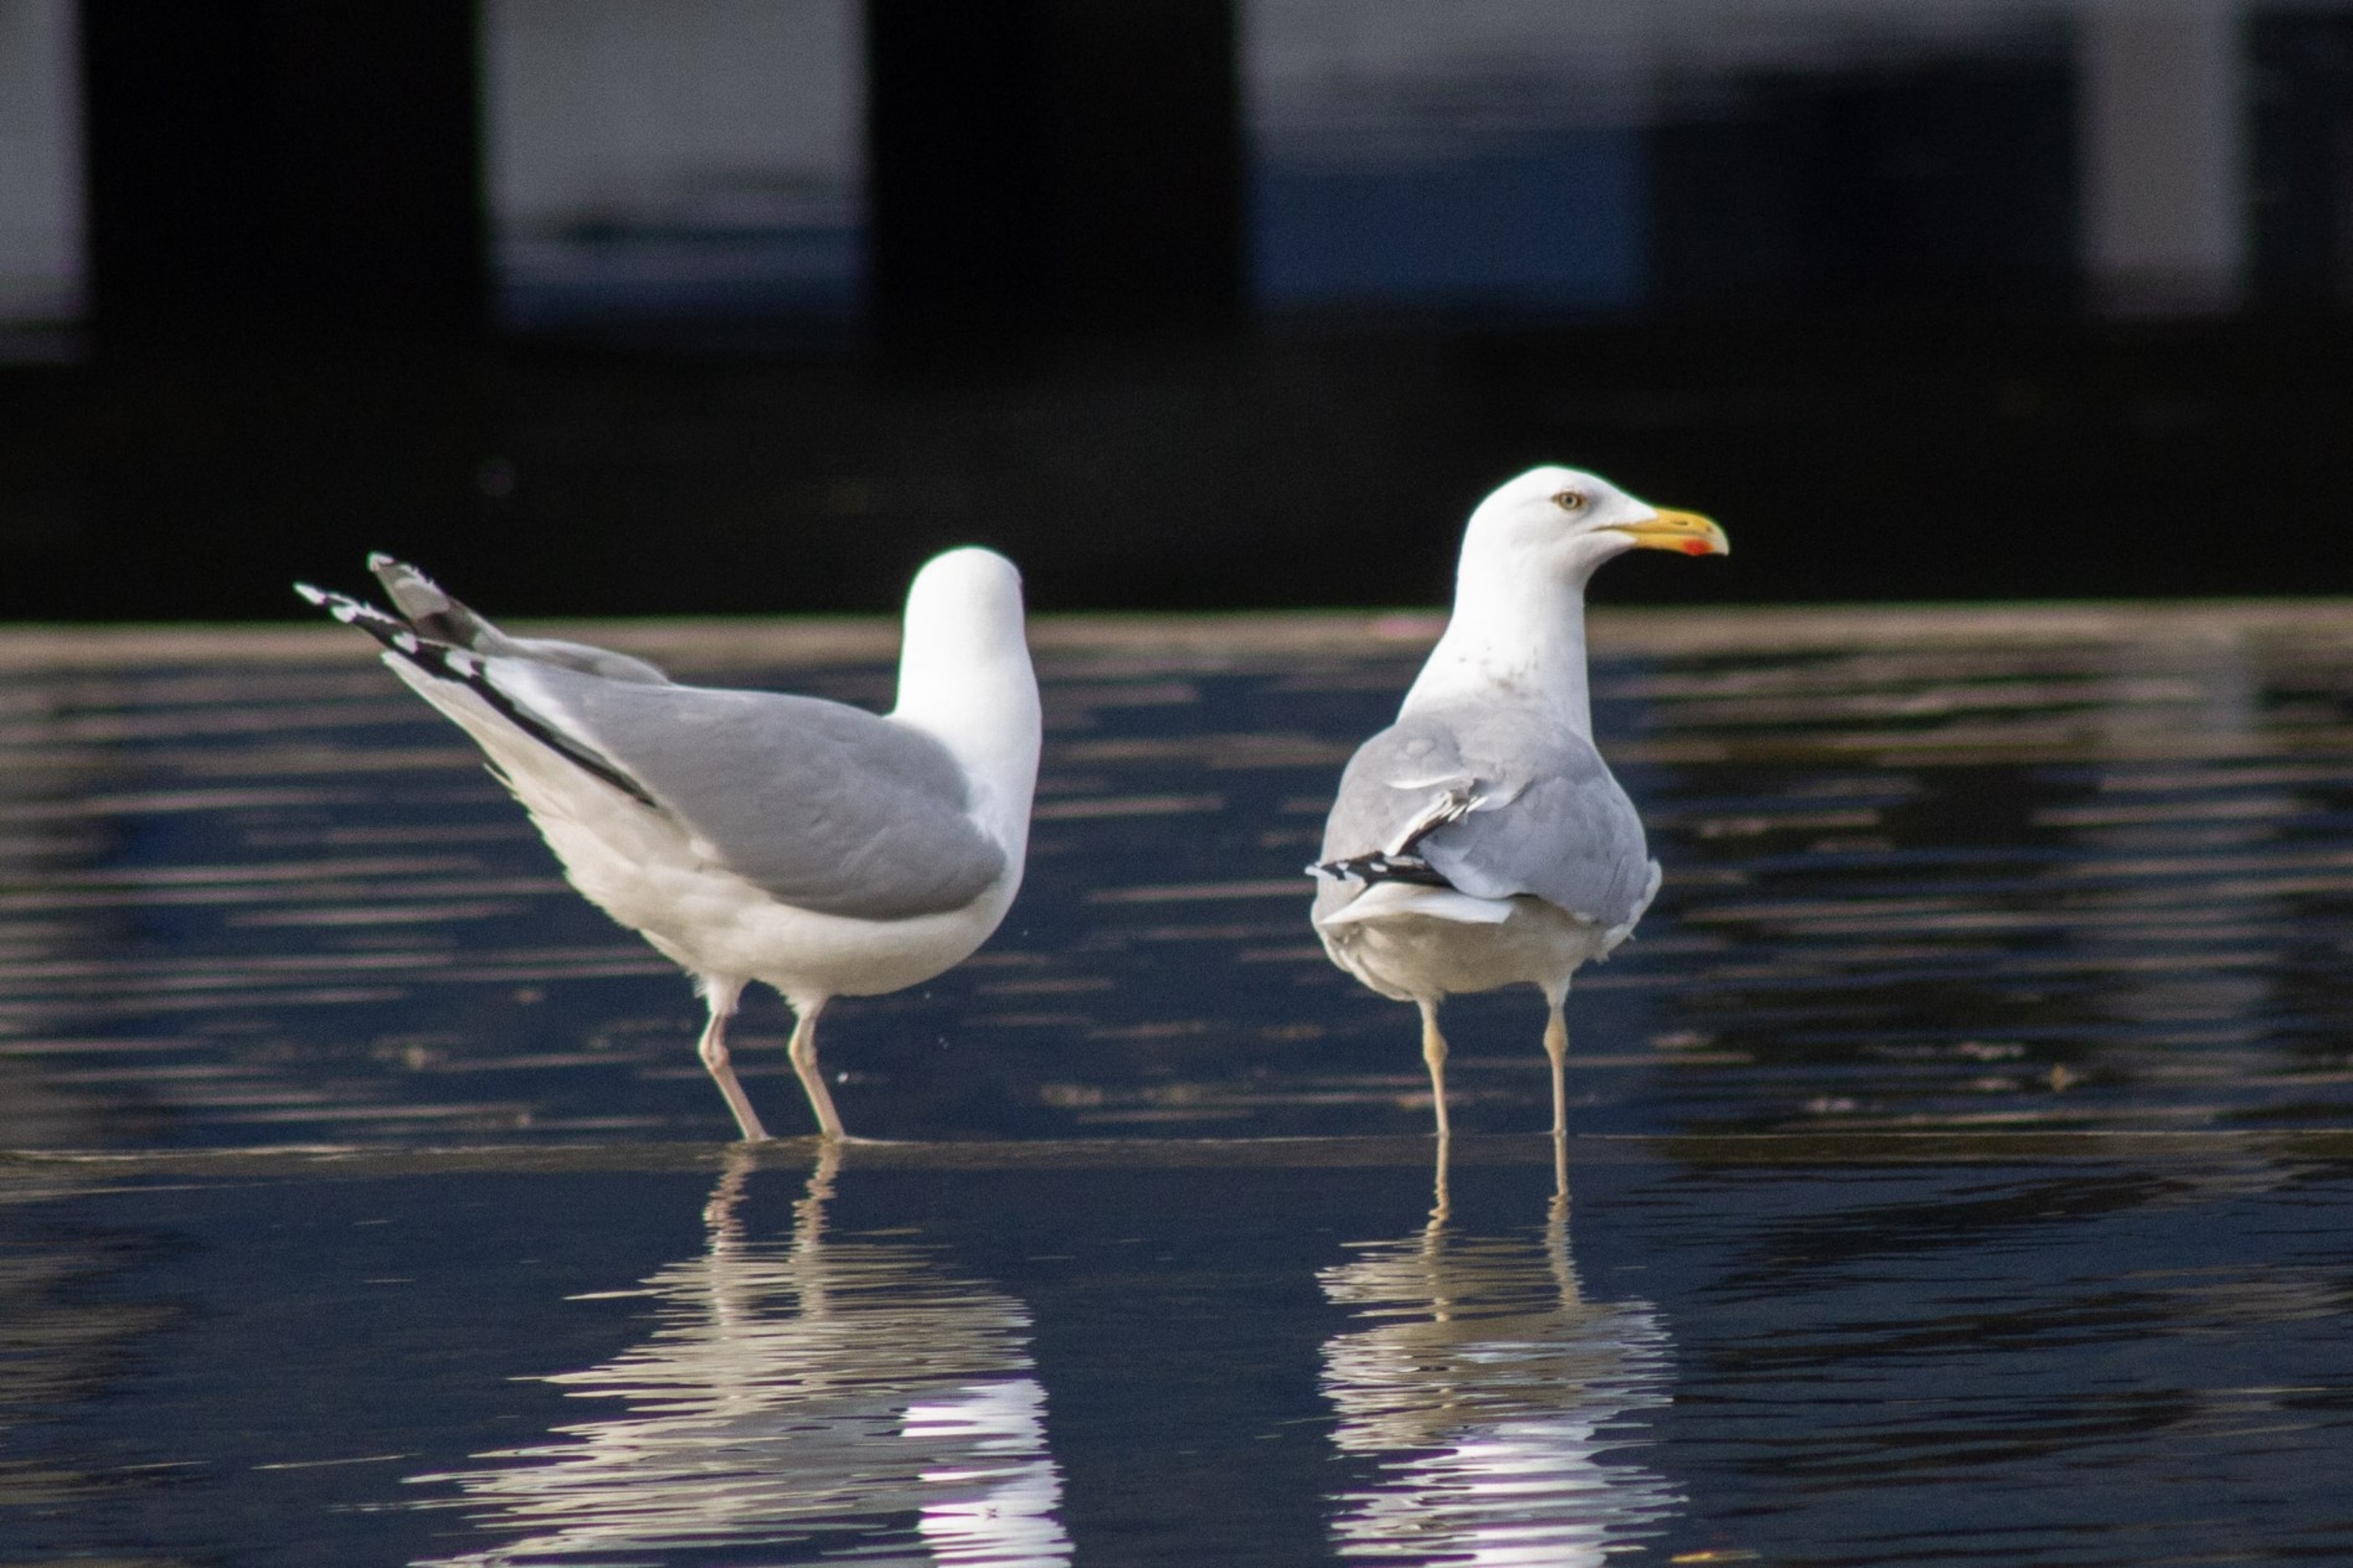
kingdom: Animalia
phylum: Chordata
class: Aves
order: Charadriiformes
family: Laridae
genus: Larus
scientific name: Larus argentatus
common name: Sølvmåge
